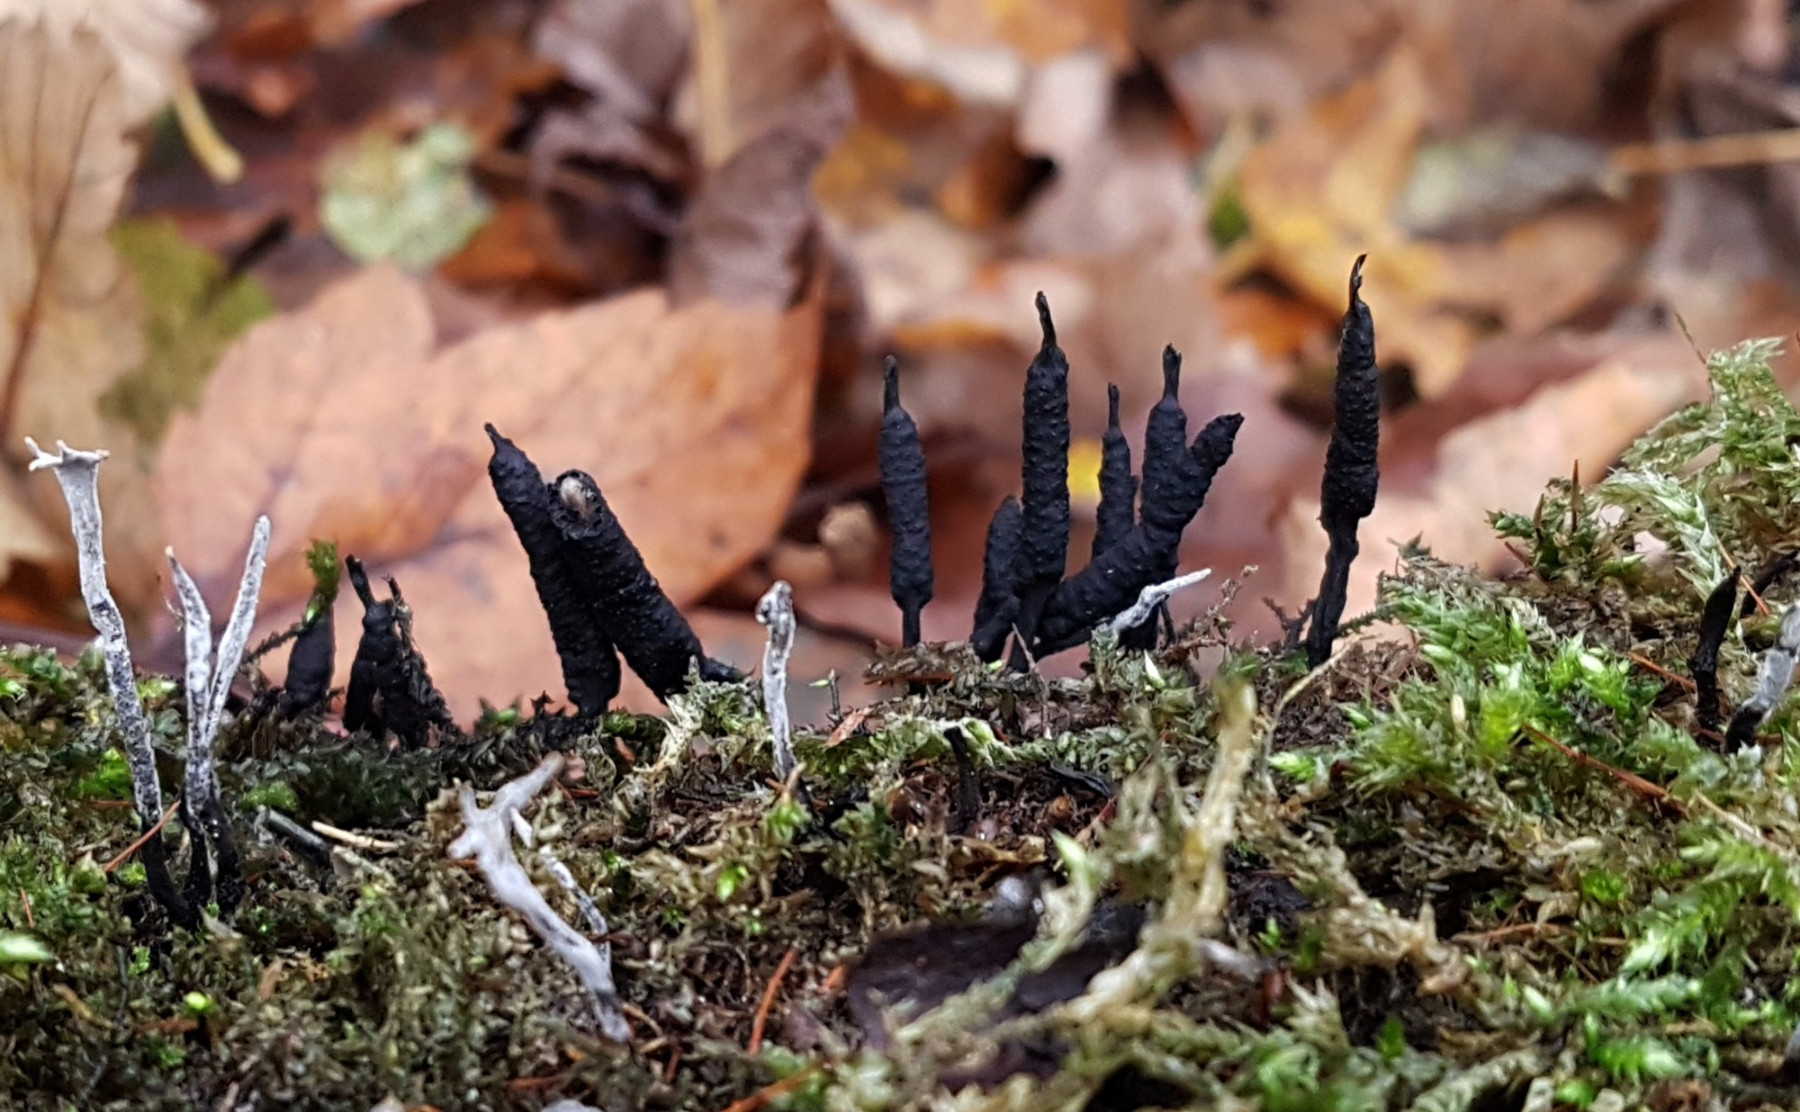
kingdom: Fungi
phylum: Ascomycota
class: Sordariomycetes
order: Xylariales
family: Xylariaceae
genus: Xylaria
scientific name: Xylaria hypoxylon
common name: grenet stødsvamp
